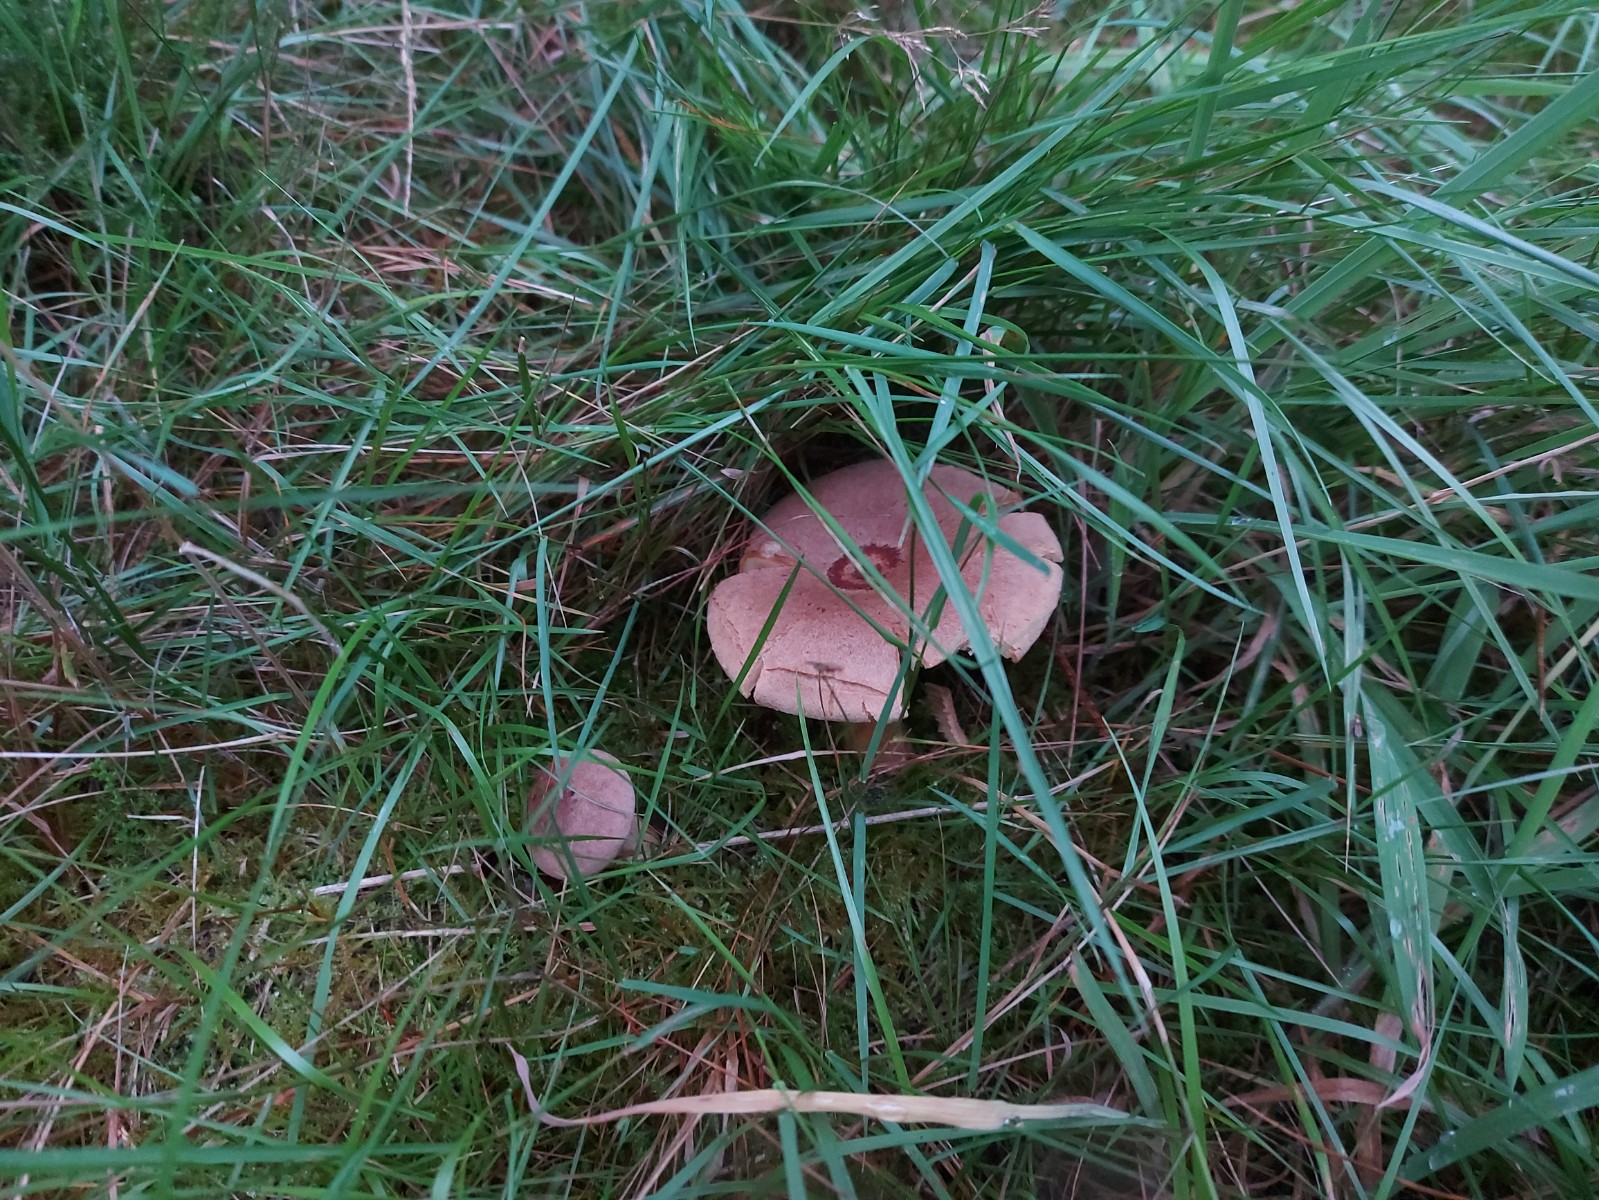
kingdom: Fungi
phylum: Basidiomycota
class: Agaricomycetes
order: Russulales
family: Russulaceae
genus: Lactarius
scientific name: Lactarius helvus
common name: mose-mælkehat
